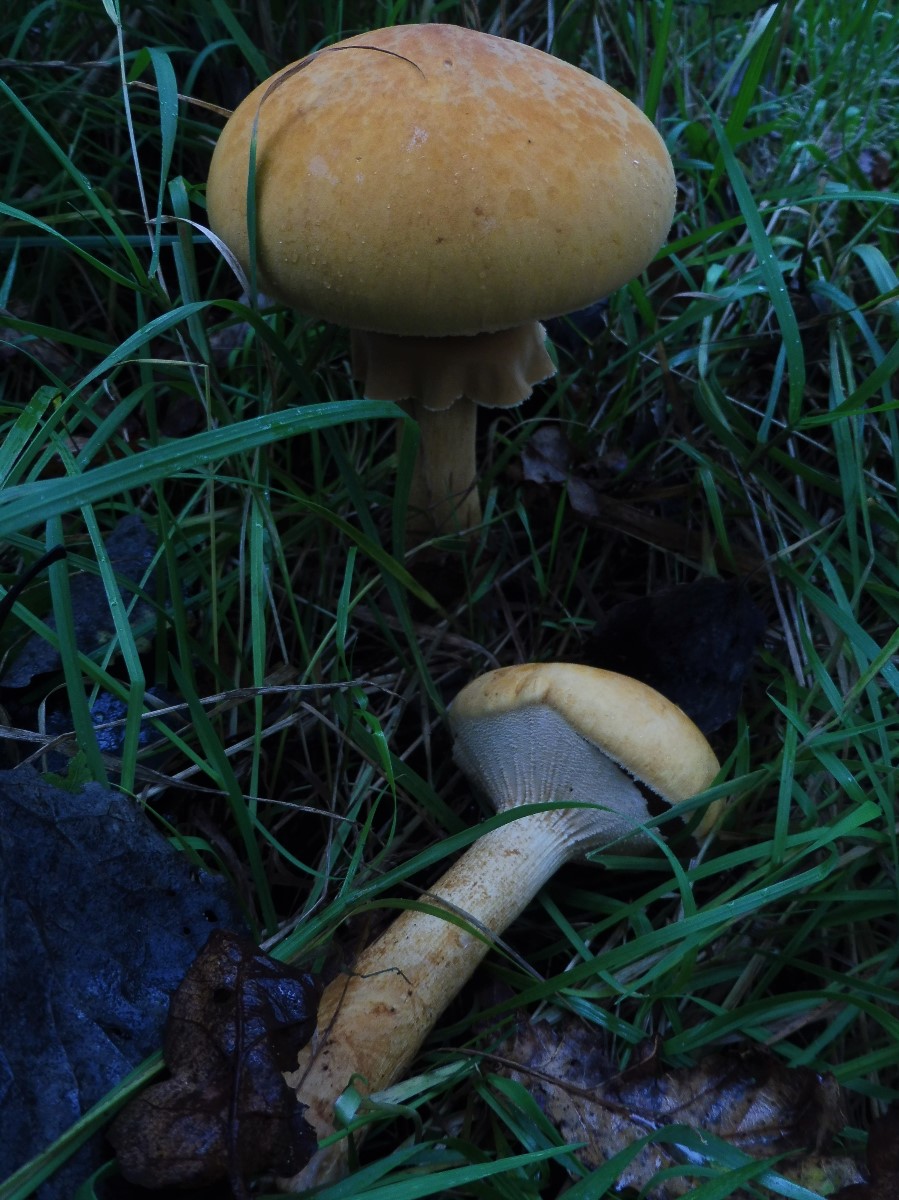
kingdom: Fungi
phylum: Basidiomycota
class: Agaricomycetes
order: Agaricales
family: Tricholomataceae
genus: Phaeolepiota
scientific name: Phaeolepiota aurea
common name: gyldenhat
